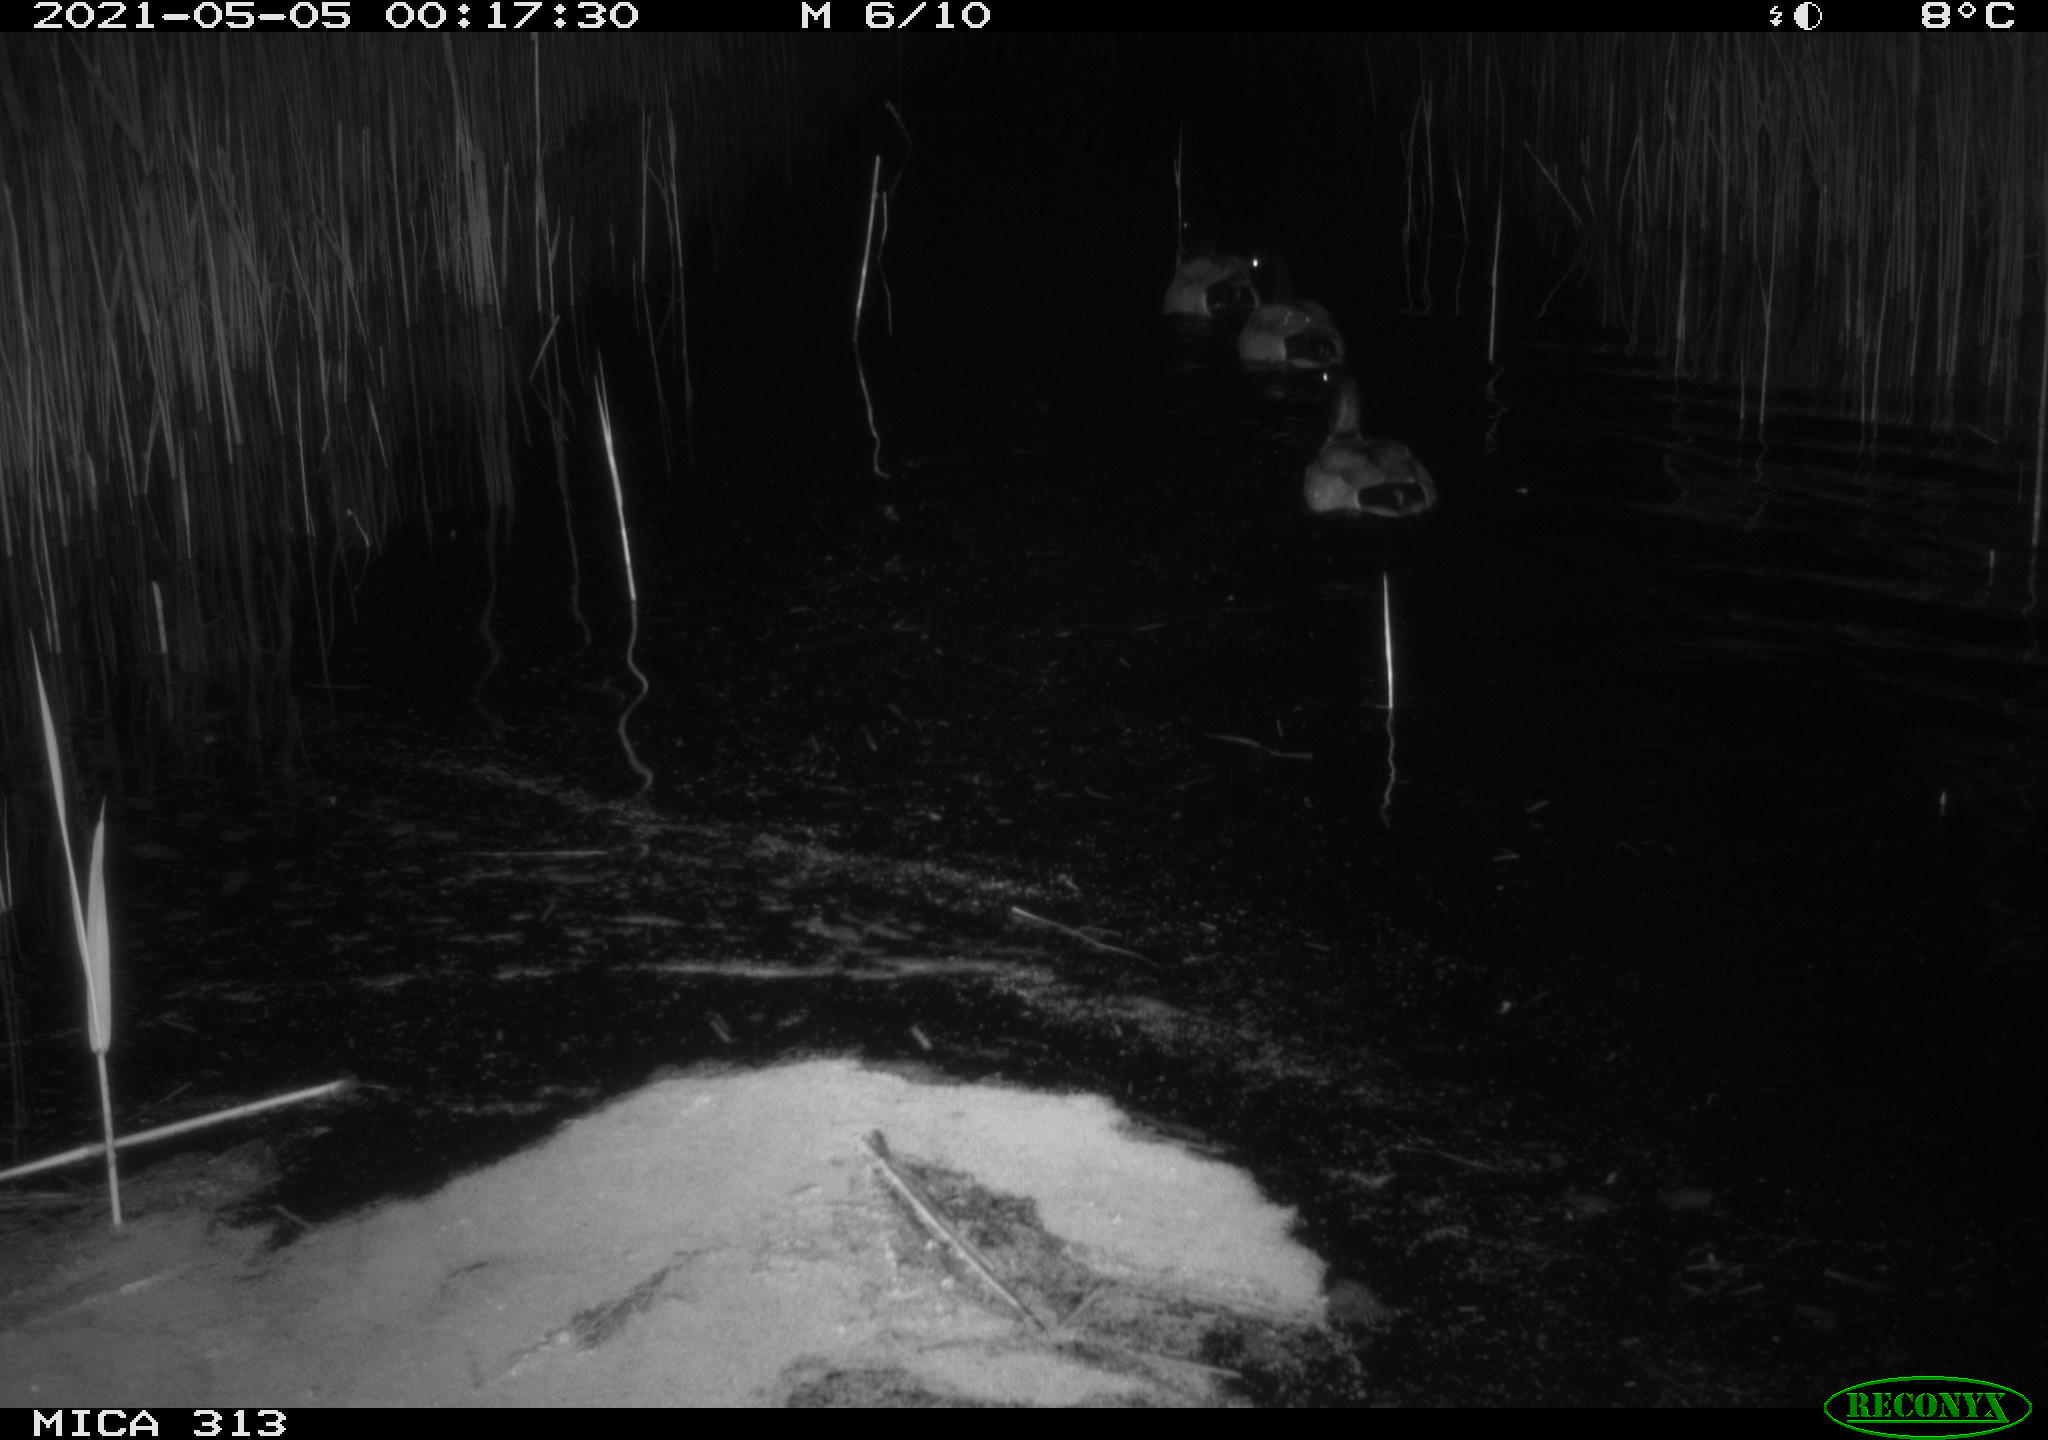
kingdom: Animalia
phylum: Chordata
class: Aves
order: Anseriformes
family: Anatidae
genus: Anas
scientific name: Anas platyrhynchos
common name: Mallard
